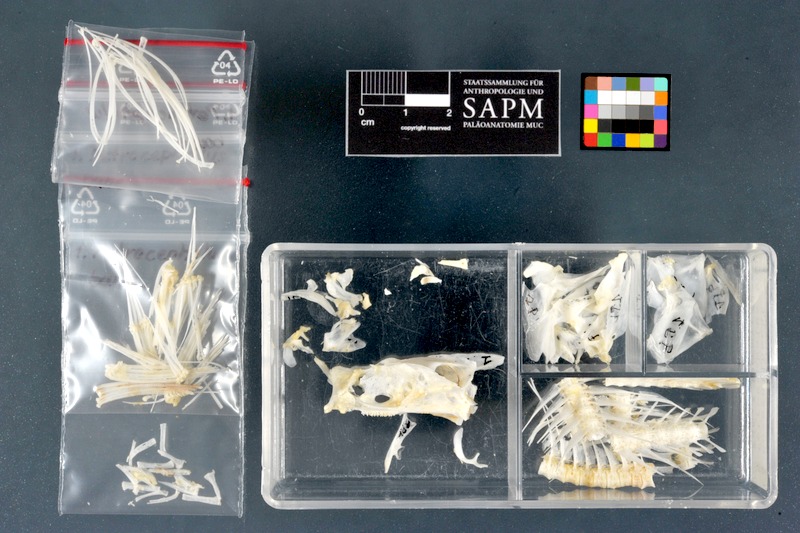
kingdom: Animalia
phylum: Chordata
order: Osteoglossiformes
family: Mormyridae
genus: Petrocephalus
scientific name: Petrocephalus bane
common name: Bane mormyrid
